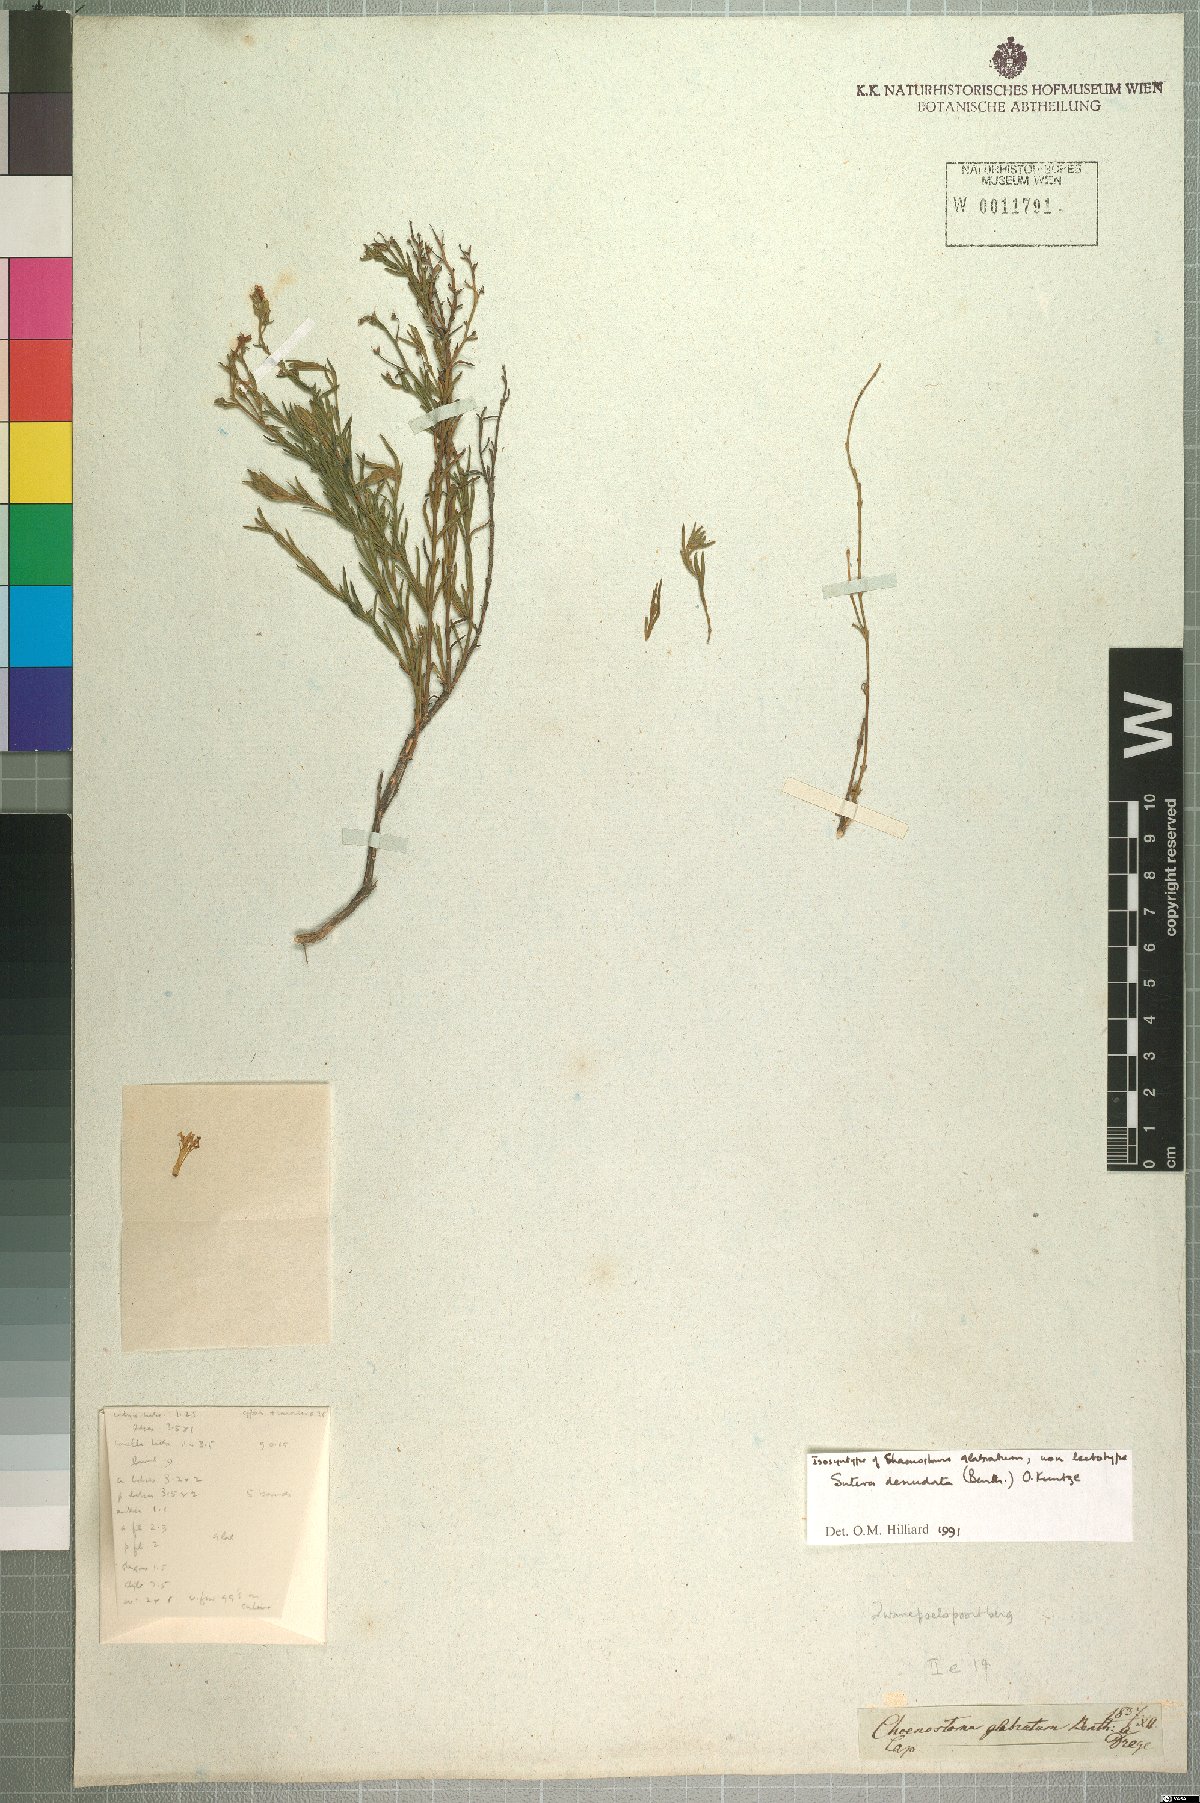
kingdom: Plantae
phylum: Tracheophyta
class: Magnoliopsida
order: Lamiales
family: Scrophulariaceae
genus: Chaenostoma
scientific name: Chaenostoma glabratum
